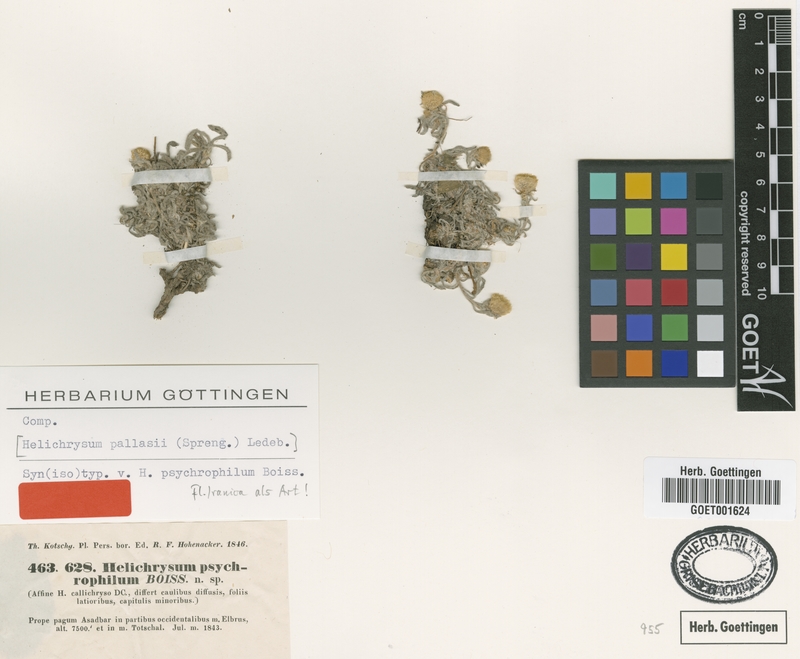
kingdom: Plantae
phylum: Tracheophyta
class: Magnoliopsida
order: Asterales
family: Asteraceae
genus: Helichrysum
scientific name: Helichrysum psychrophilum
